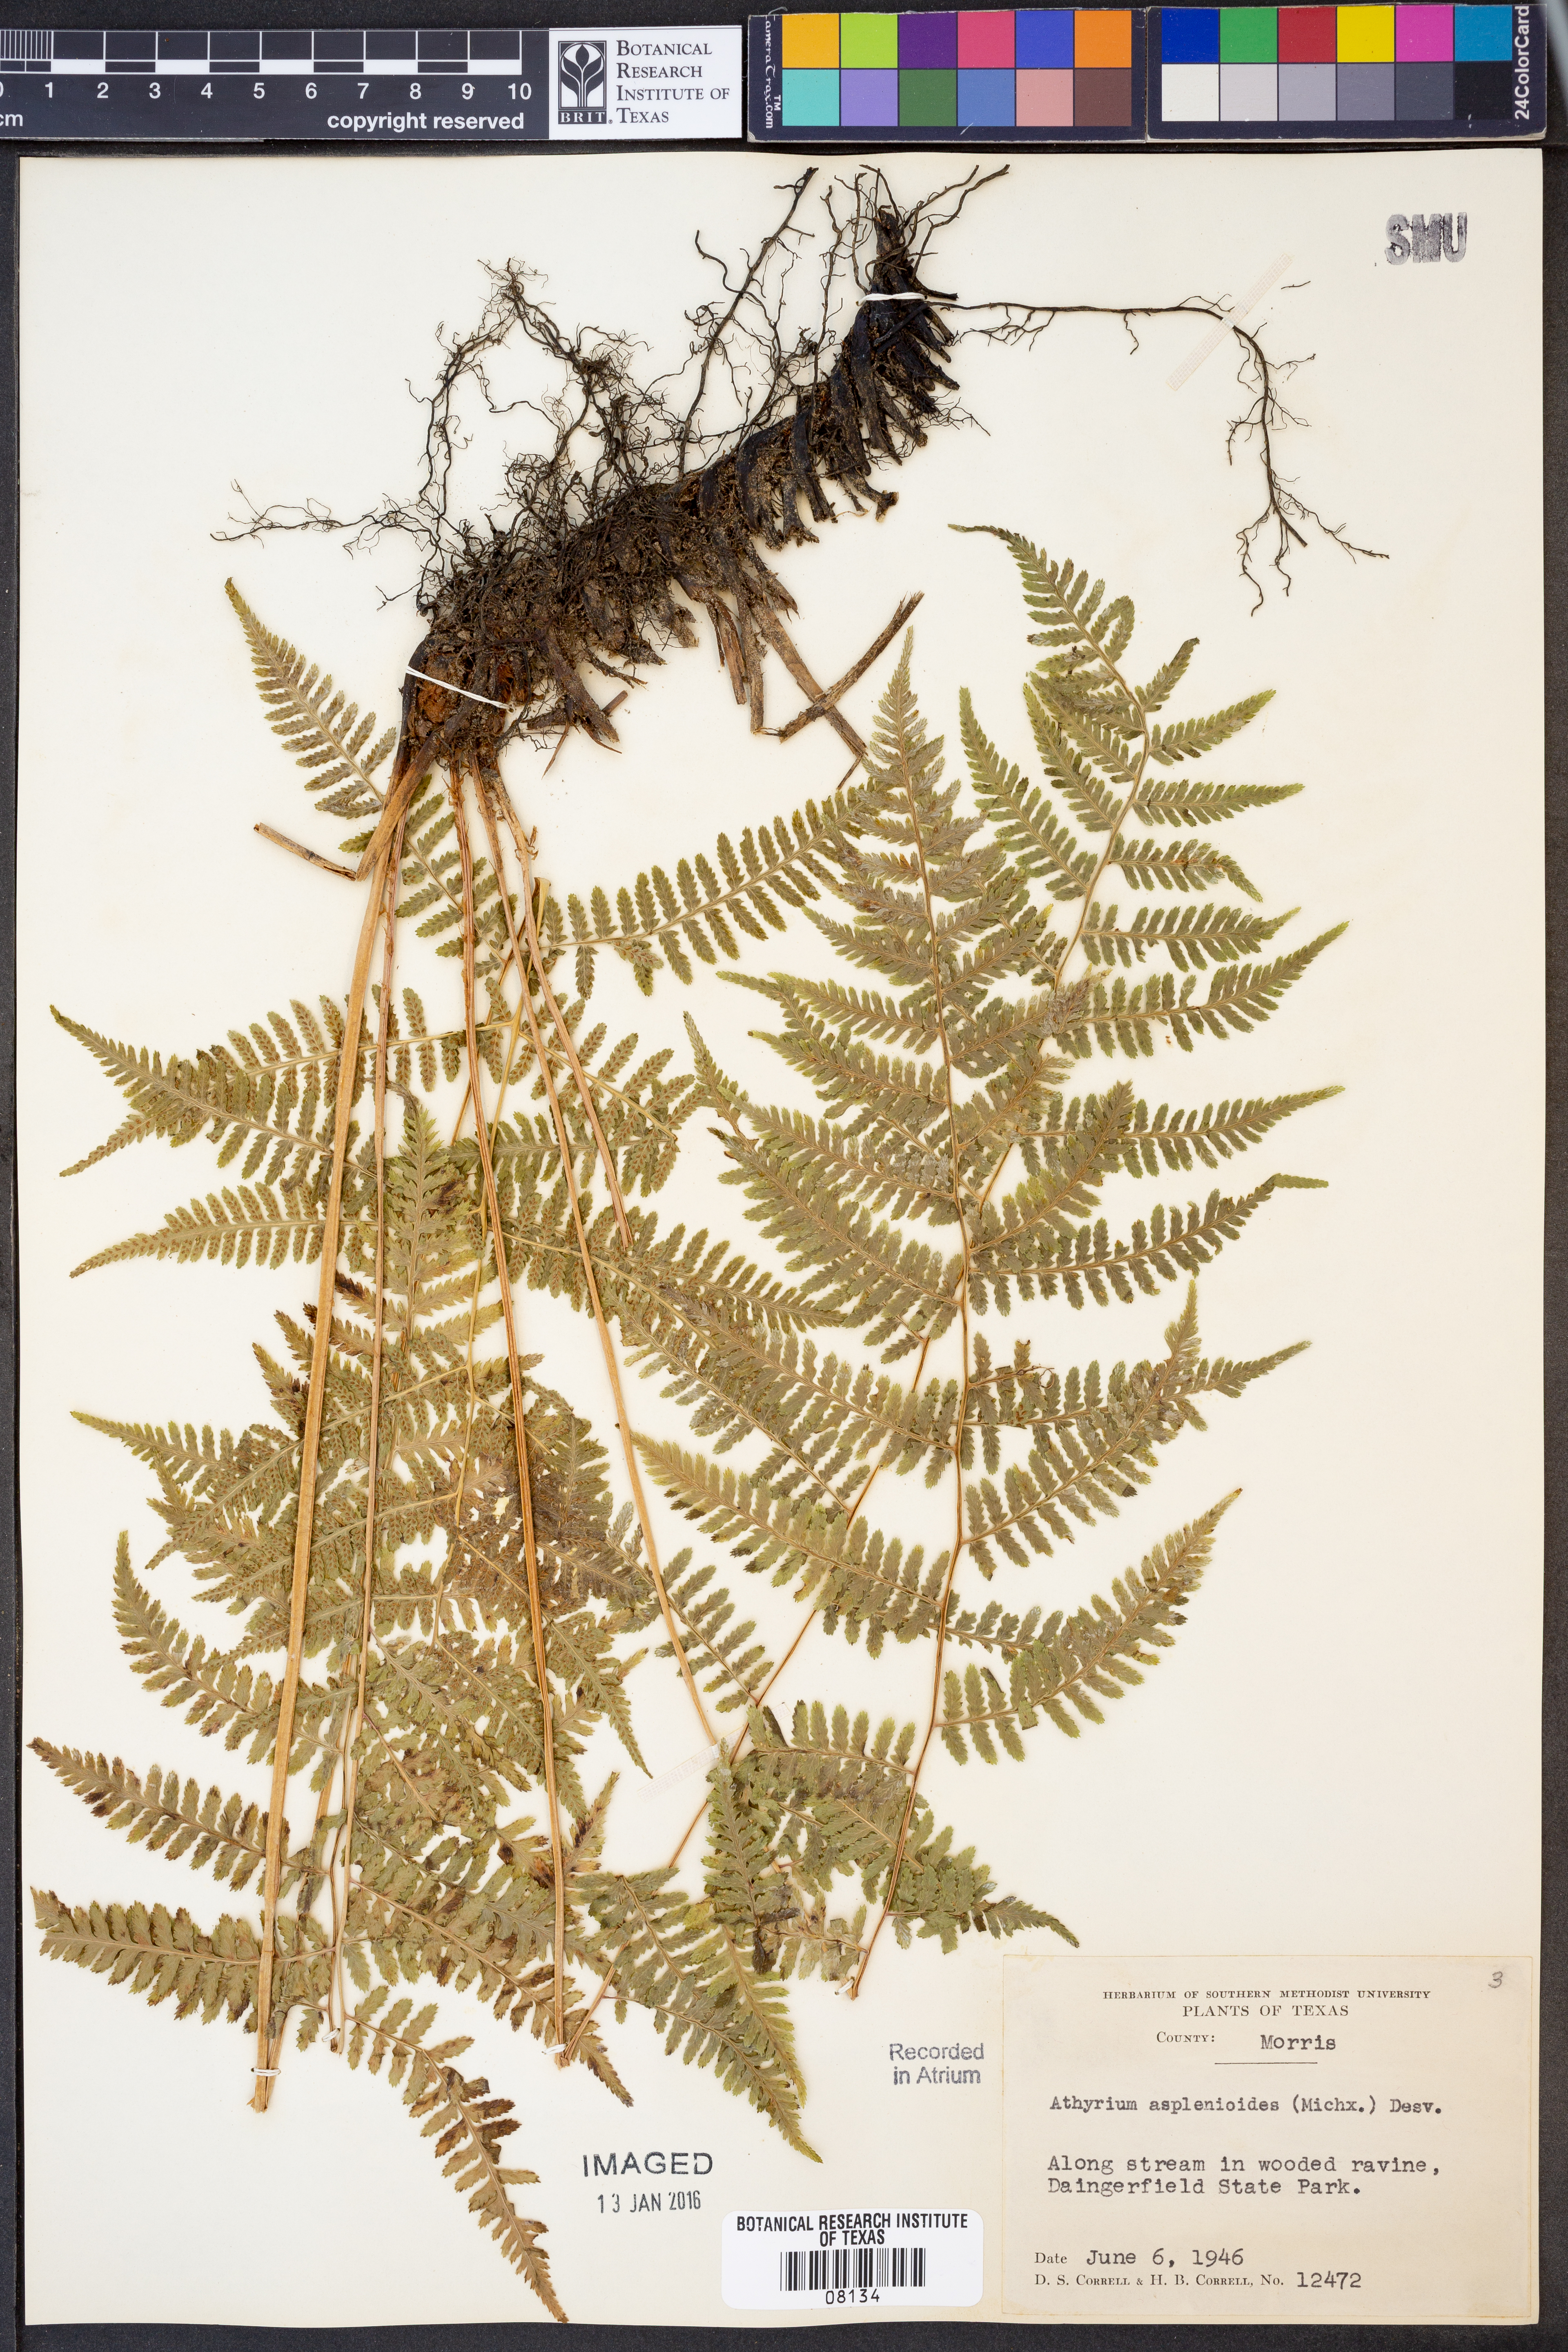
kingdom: Plantae
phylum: Tracheophyta
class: Polypodiopsida
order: Polypodiales
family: Athyriaceae
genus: Athyrium
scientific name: Athyrium asplenioides
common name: Southern lady fern
